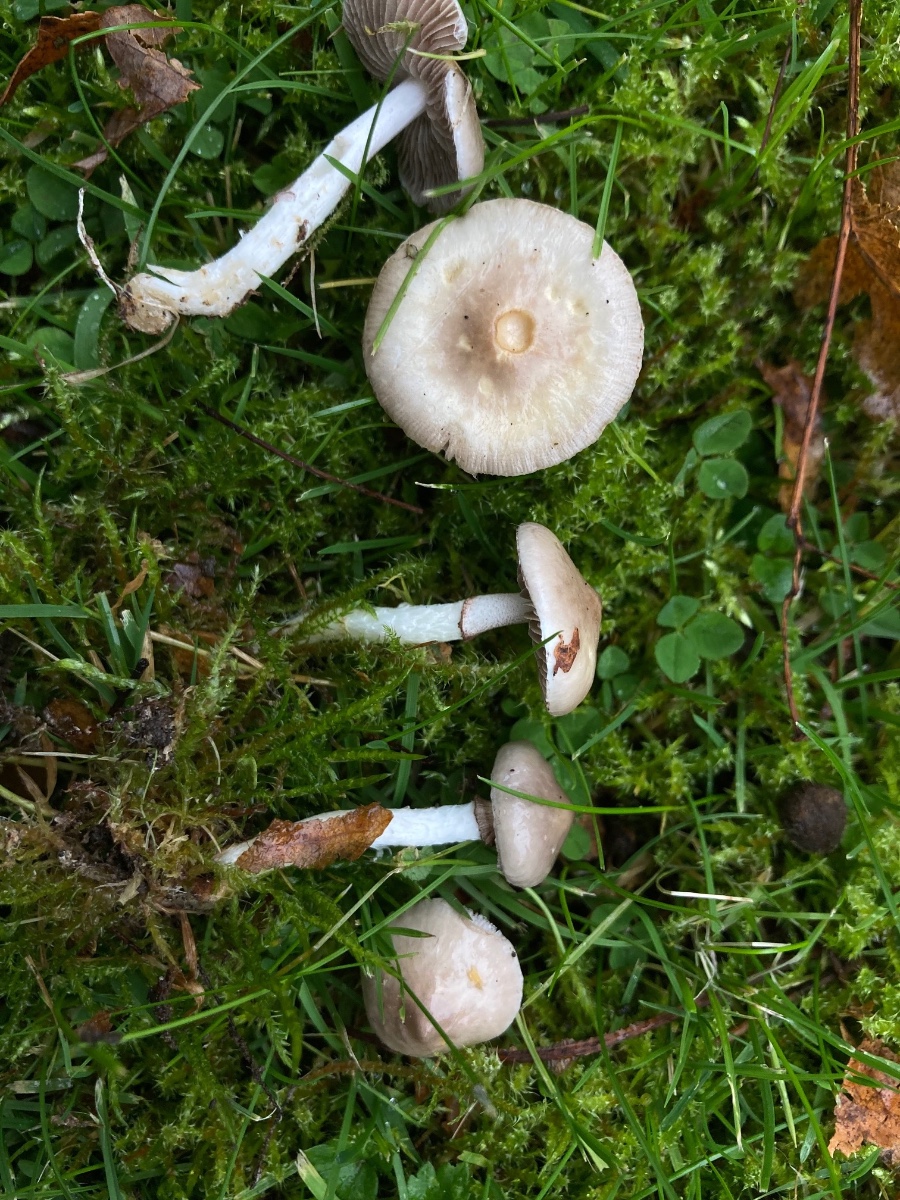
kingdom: Fungi
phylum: Basidiomycota
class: Agaricomycetes
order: Agaricales
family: Strophariaceae
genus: Stropharia
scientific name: Stropharia inuncta
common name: lillabrun bredblad
